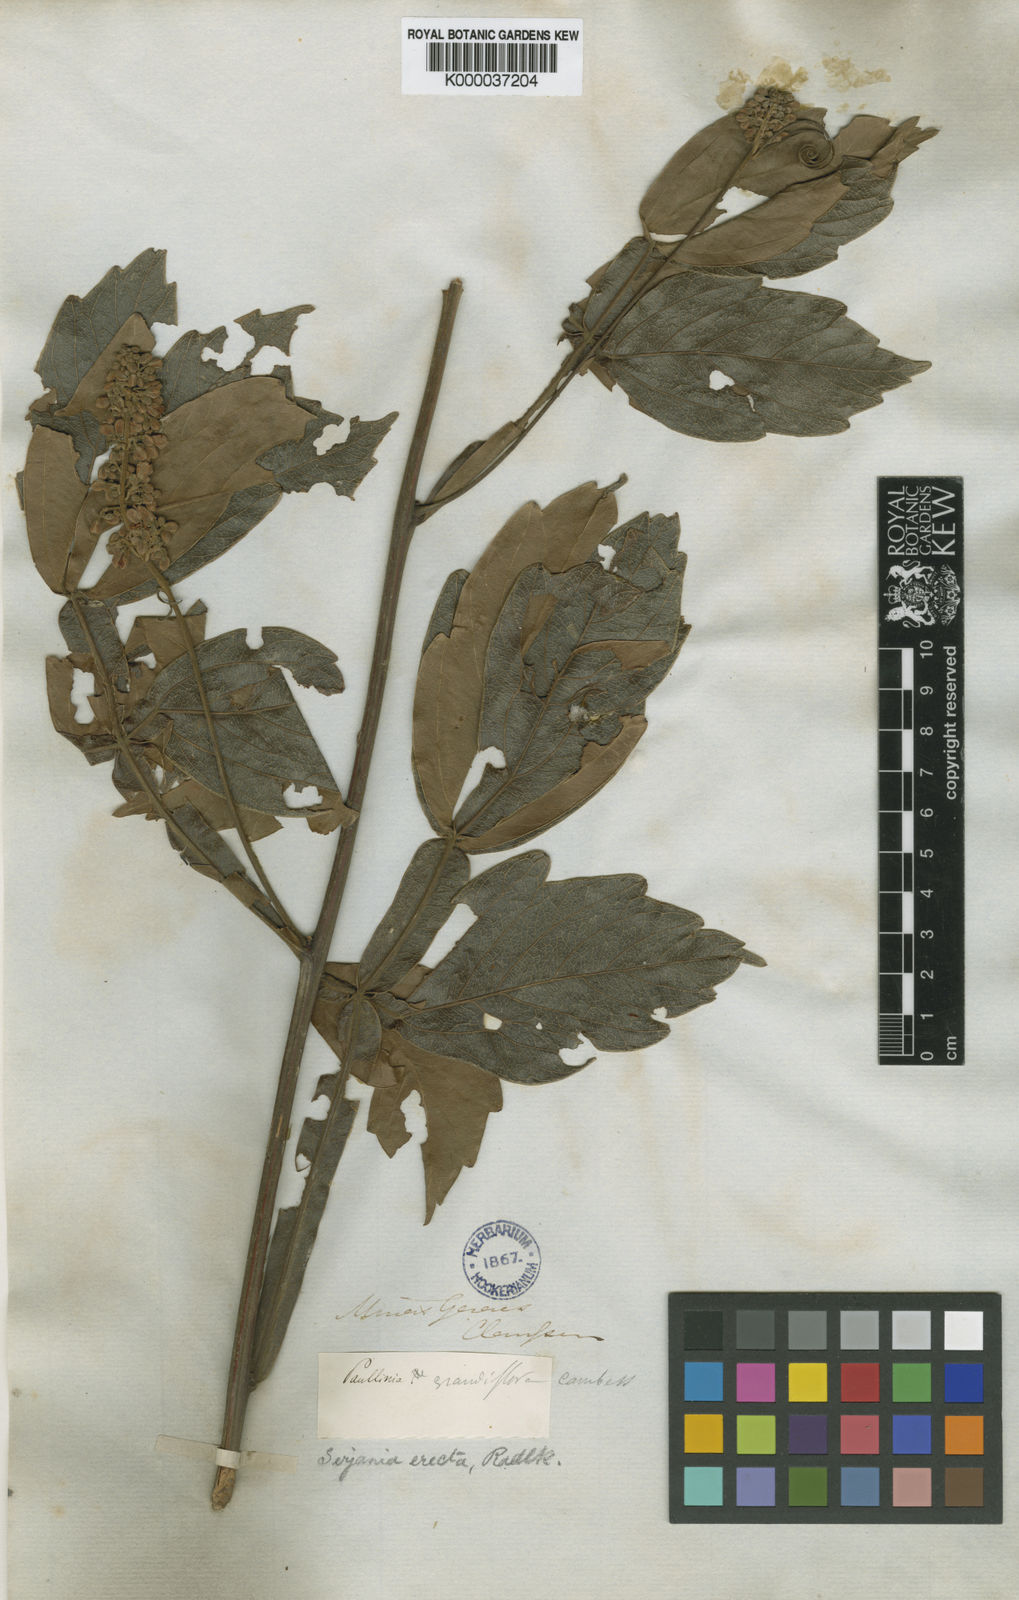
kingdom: Plantae
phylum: Tracheophyta
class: Magnoliopsida
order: Sapindales
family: Sapindaceae
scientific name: Sapindaceae
